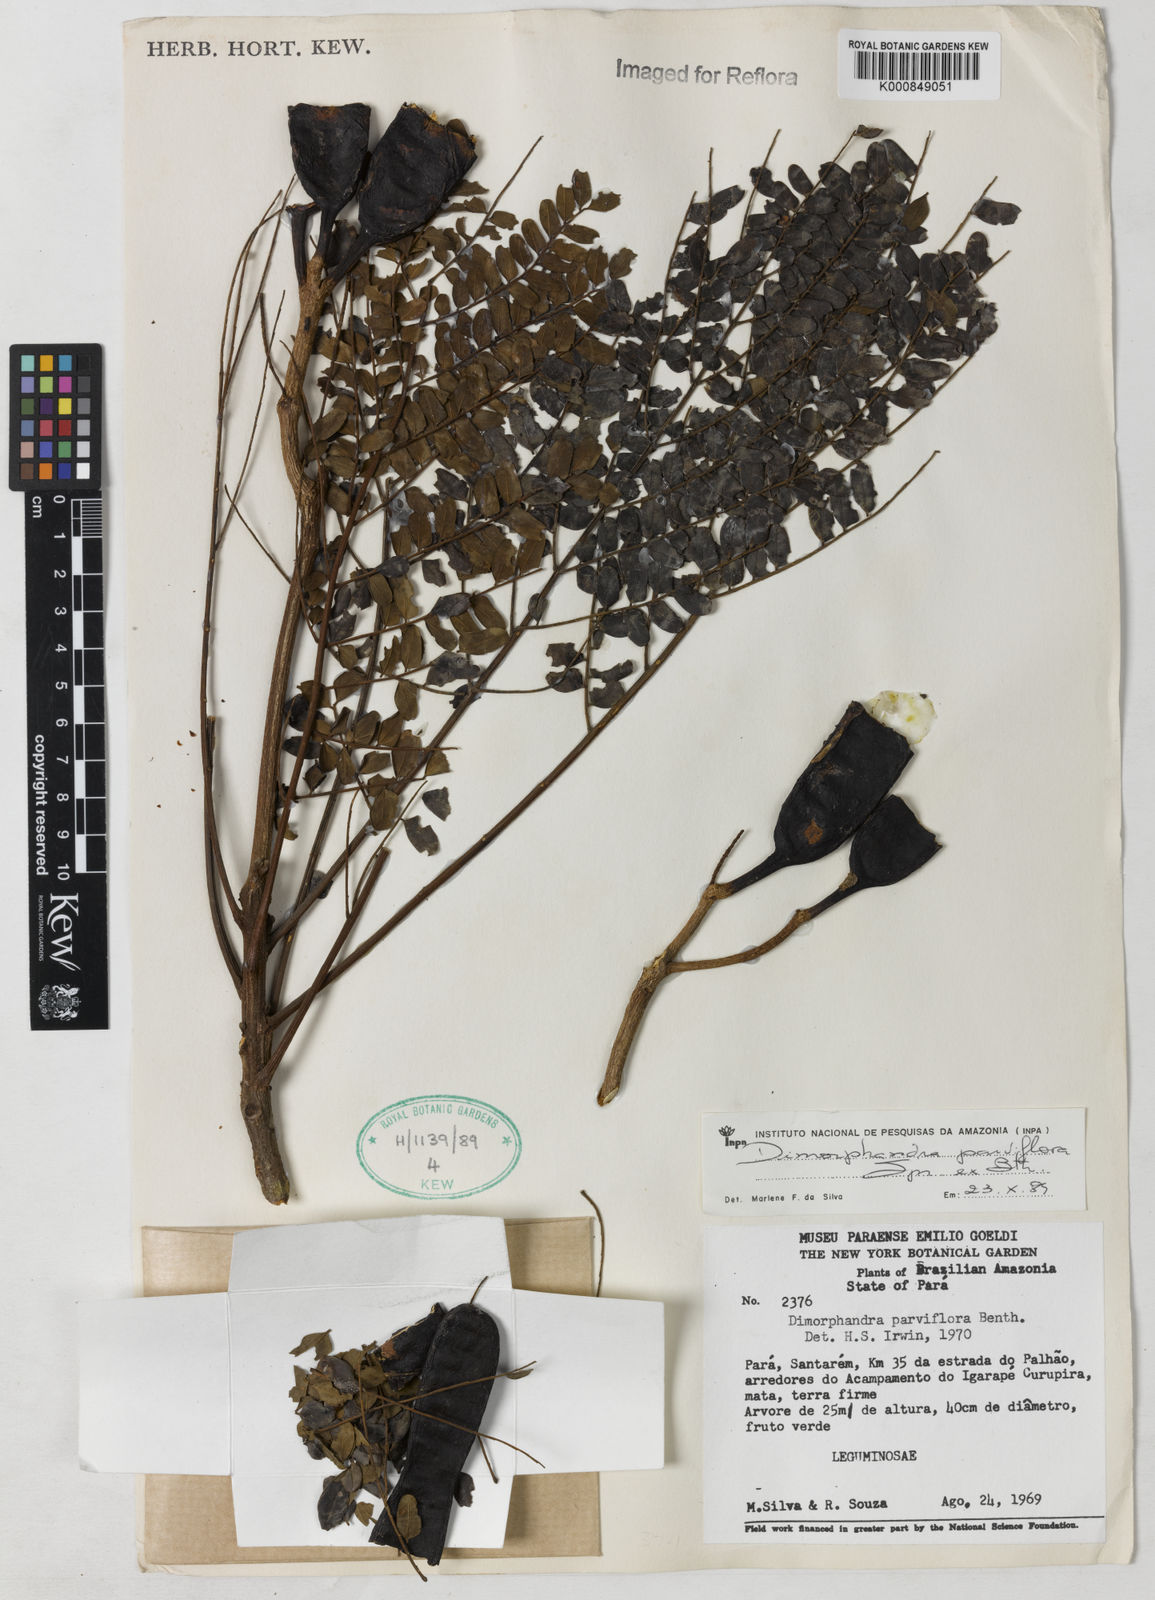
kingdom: Plantae
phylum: Tracheophyta
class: Magnoliopsida
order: Fabales
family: Fabaceae
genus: Dimorphandra
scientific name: Dimorphandra parviflora
